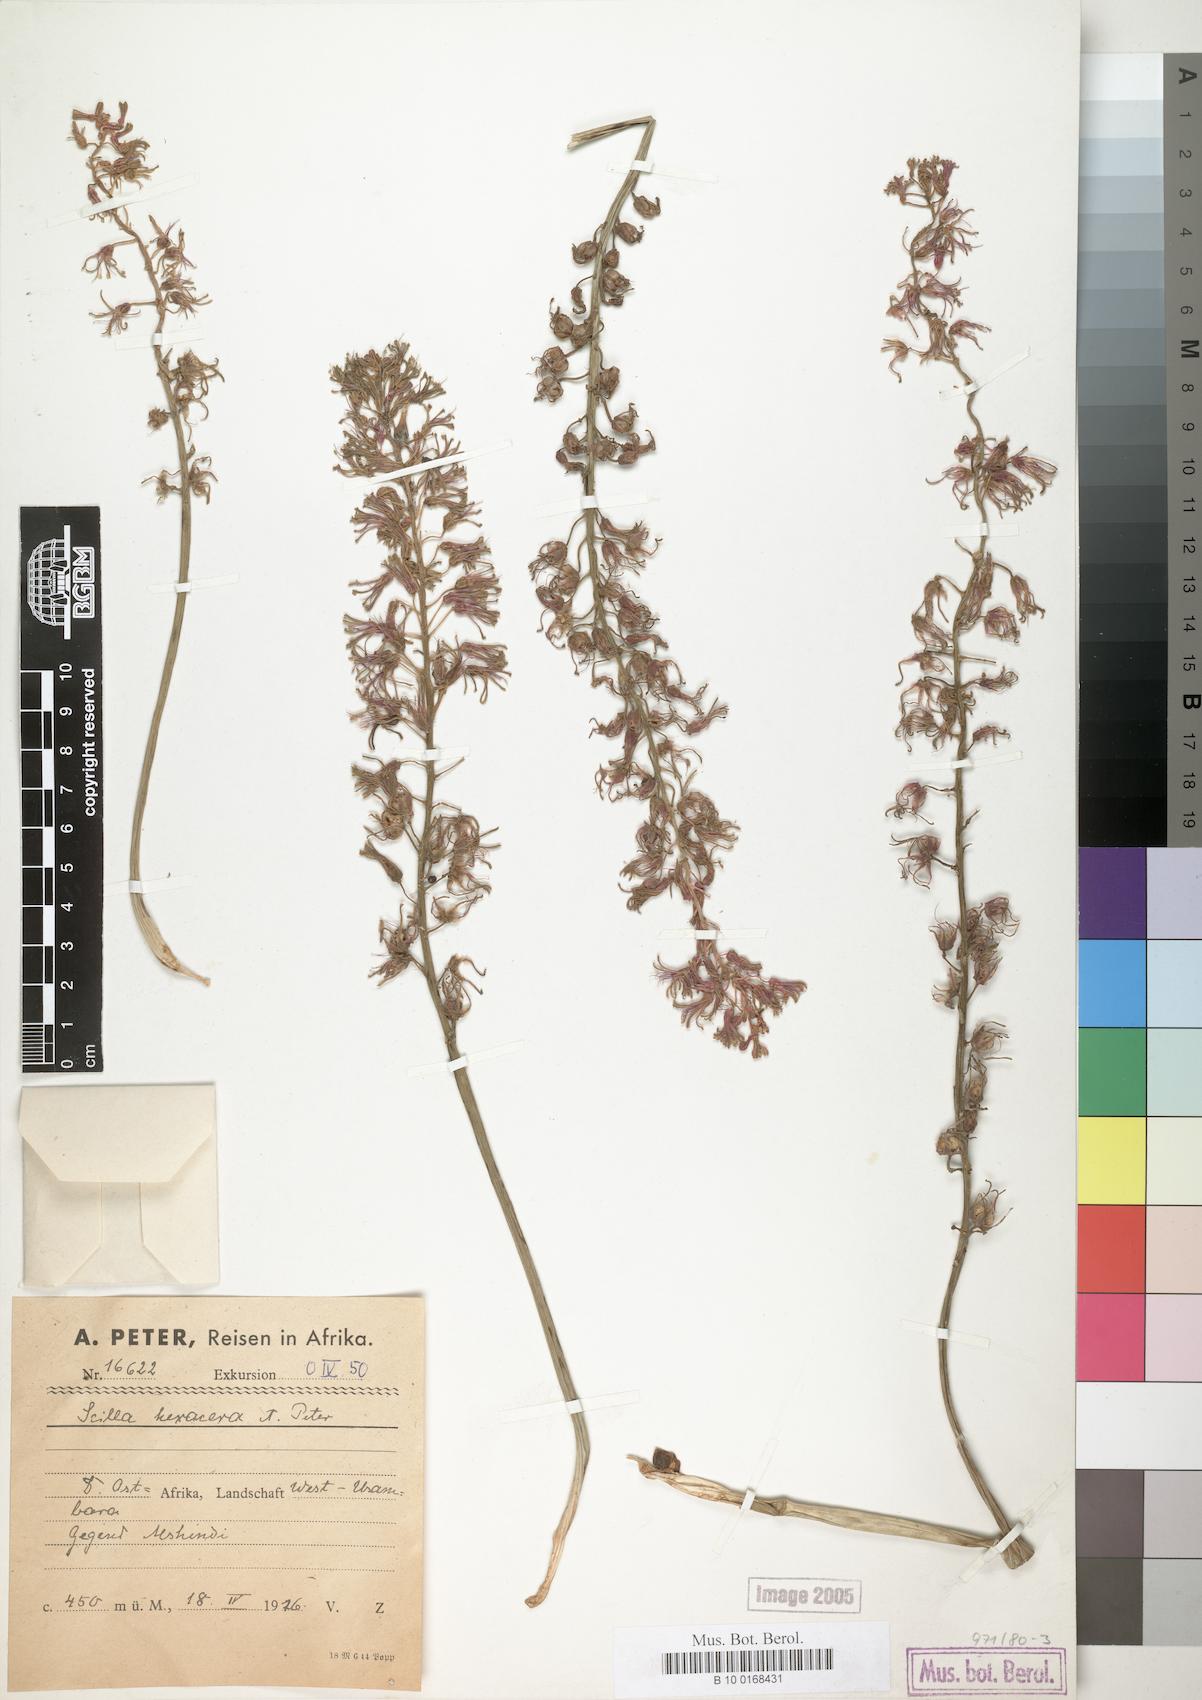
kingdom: Plantae
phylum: Tracheophyta
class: Liliopsida
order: Asparagales
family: Asparagaceae
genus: Scilla
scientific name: Scilla
